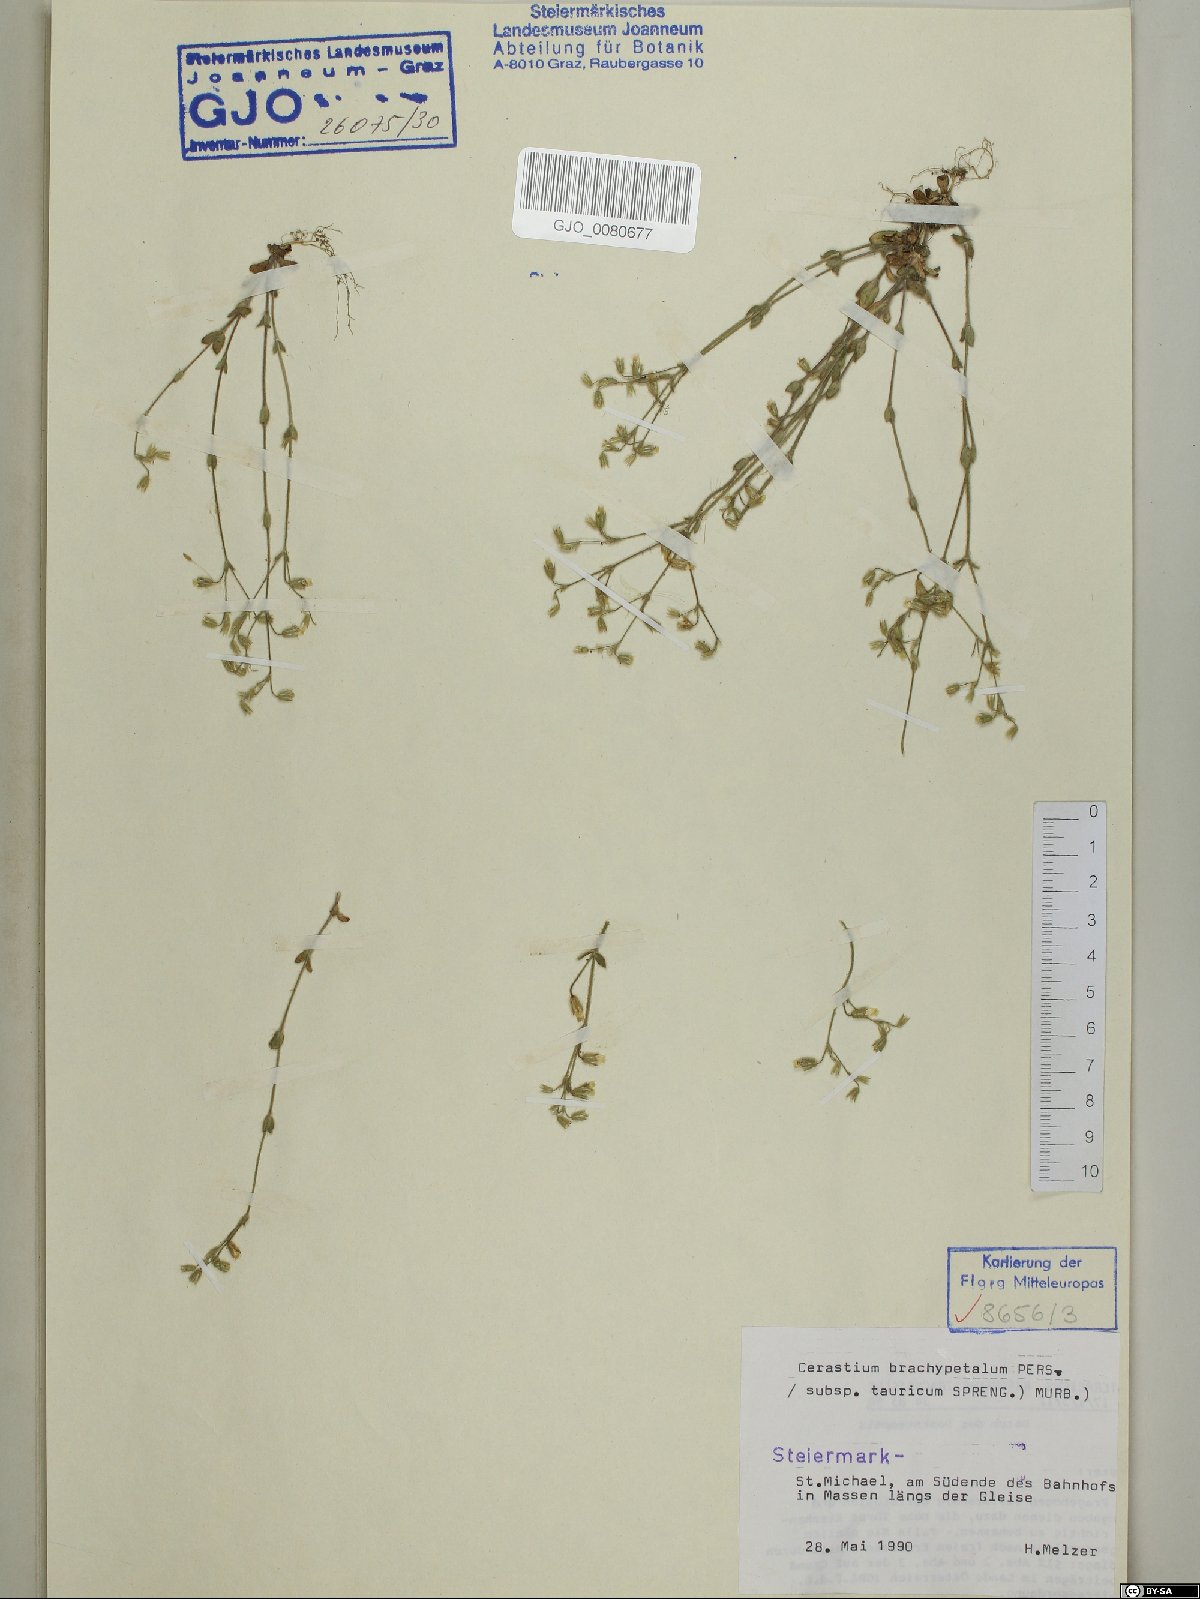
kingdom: Plantae
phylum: Tracheophyta
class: Magnoliopsida
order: Caryophyllales
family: Caryophyllaceae
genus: Cerastium
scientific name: Cerastium brachypetalum
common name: Grey mouse-ear
